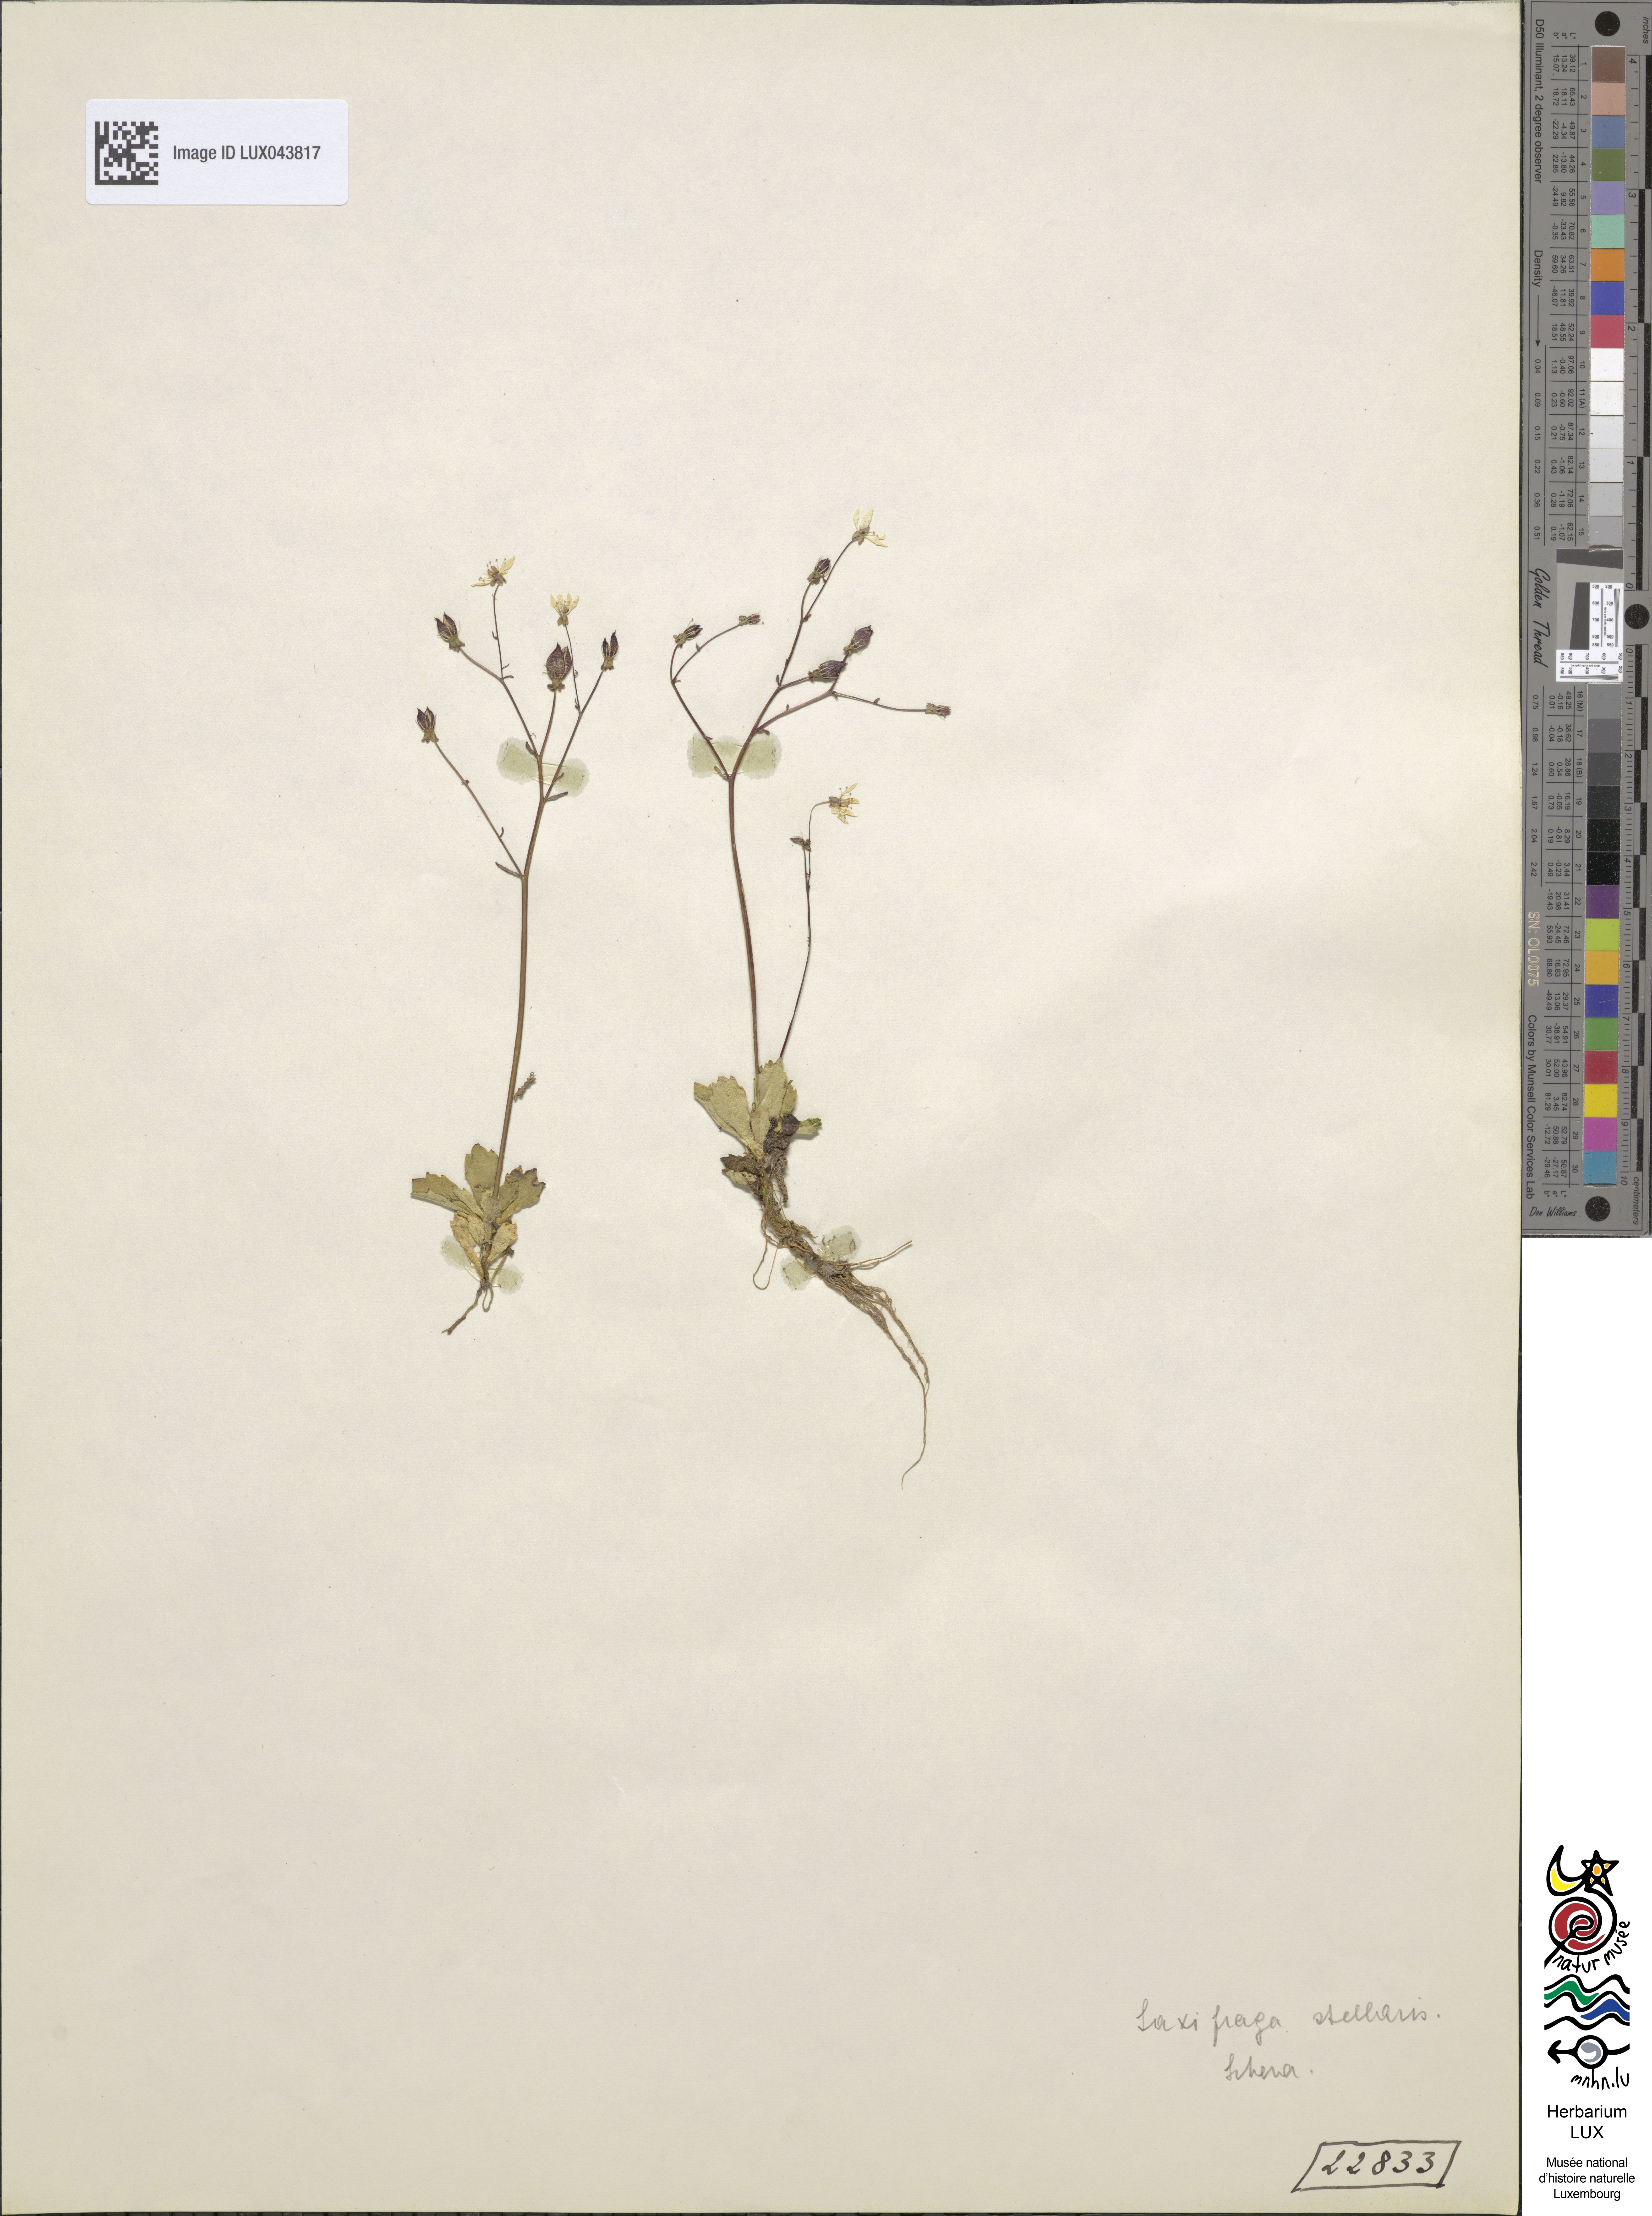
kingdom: Plantae
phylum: Tracheophyta
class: Magnoliopsida
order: Saxifragales
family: Saxifragaceae
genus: Micranthes
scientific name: Micranthes stellaris
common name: Starry saxifrage
